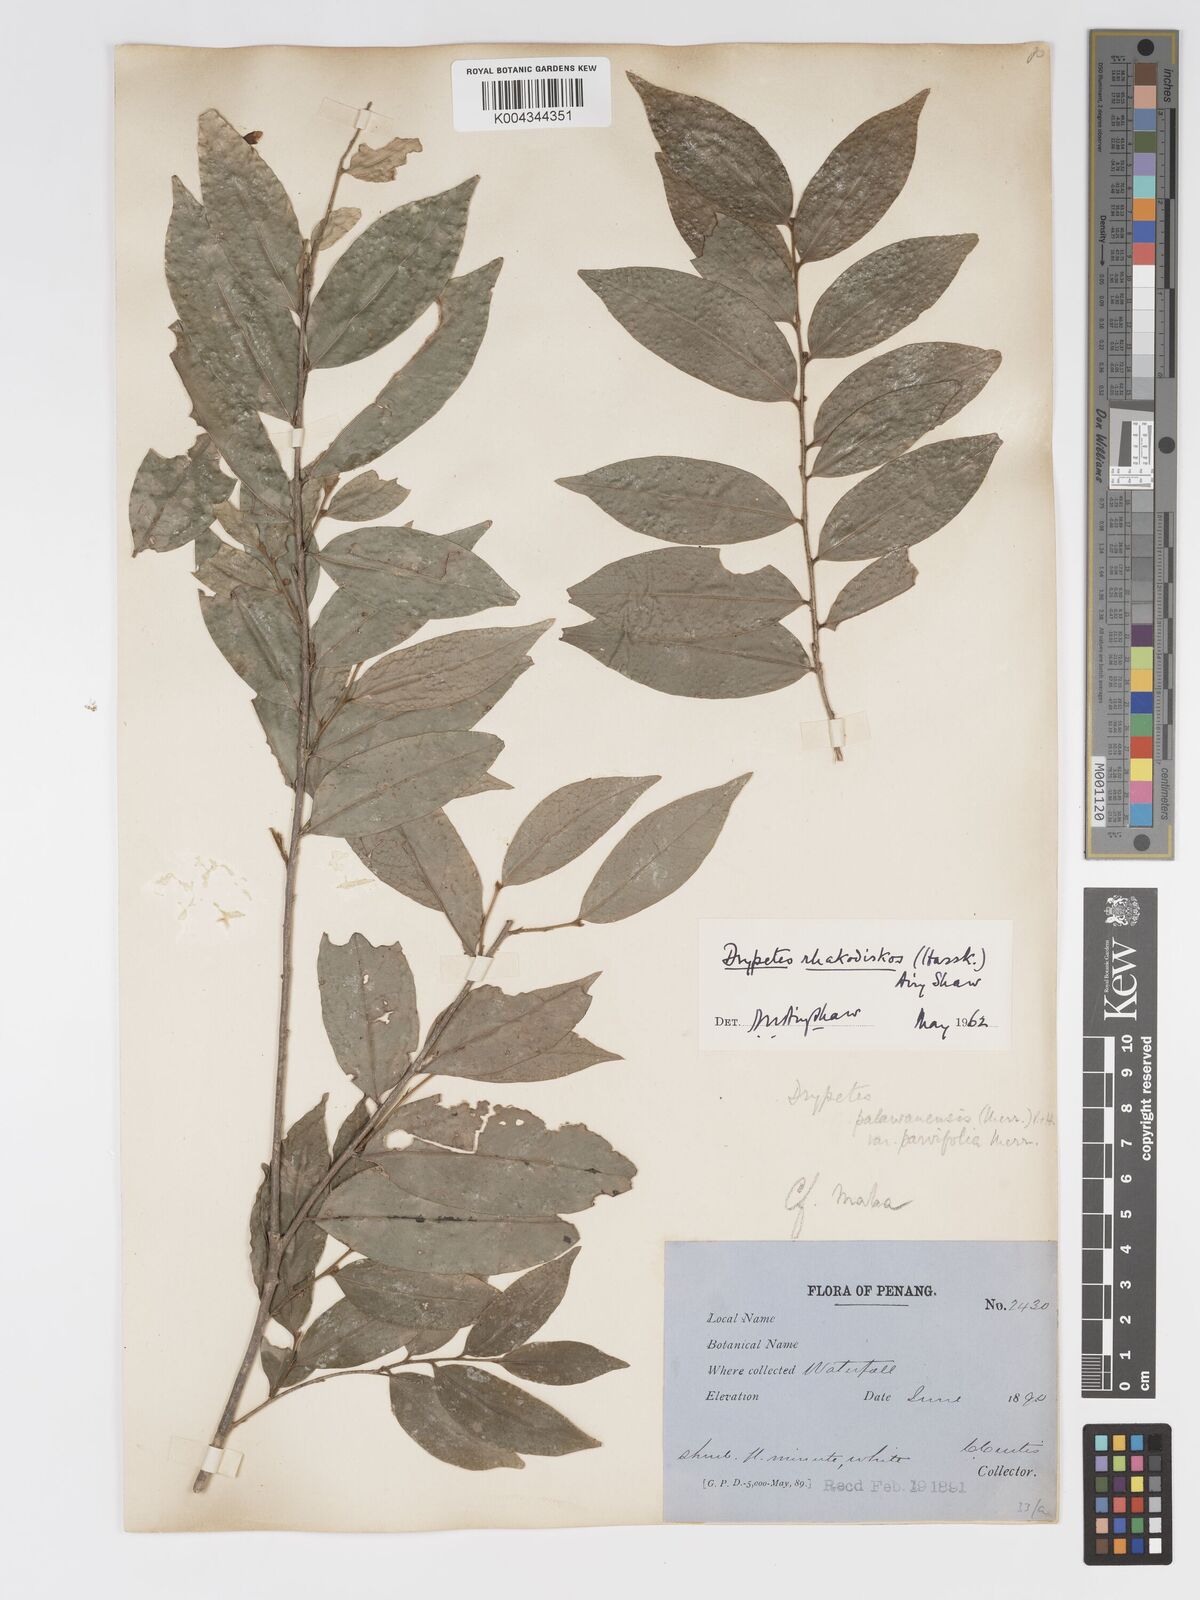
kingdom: Plantae
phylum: Tracheophyta
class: Magnoliopsida
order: Malpighiales
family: Putranjivaceae
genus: Drypetes
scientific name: Drypetes rhakodiskos
